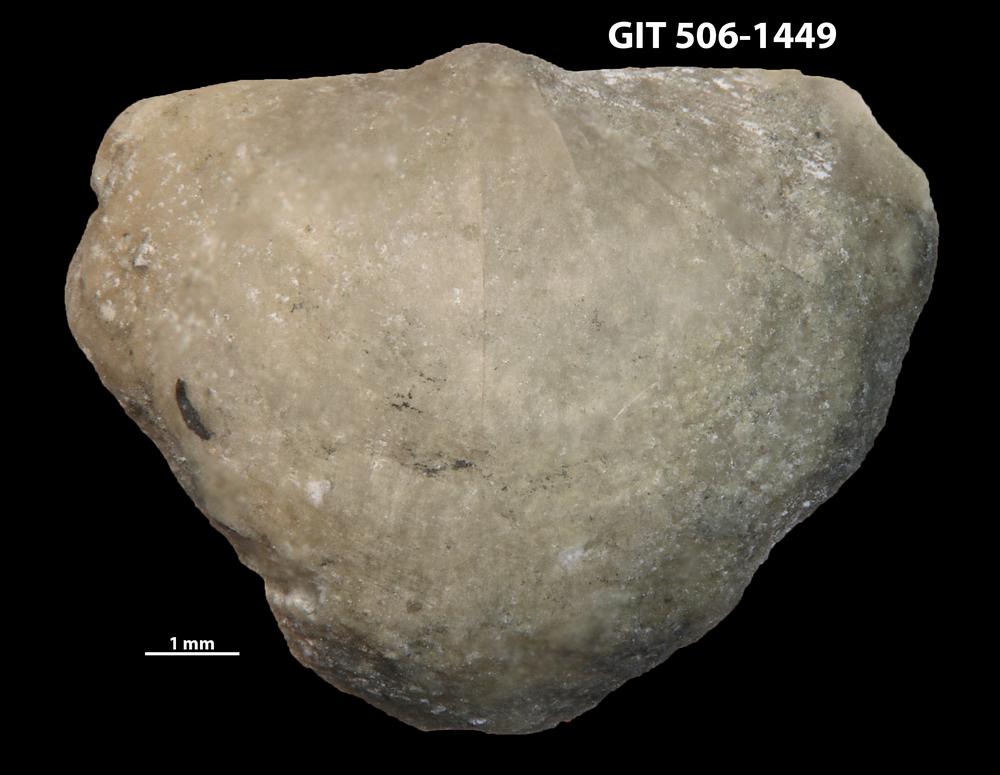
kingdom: Animalia
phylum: Brachiopoda
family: Eopholidostrophiidae
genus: Mesopholidostrophia
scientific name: Mesopholidostrophia Leptaena laevigata
